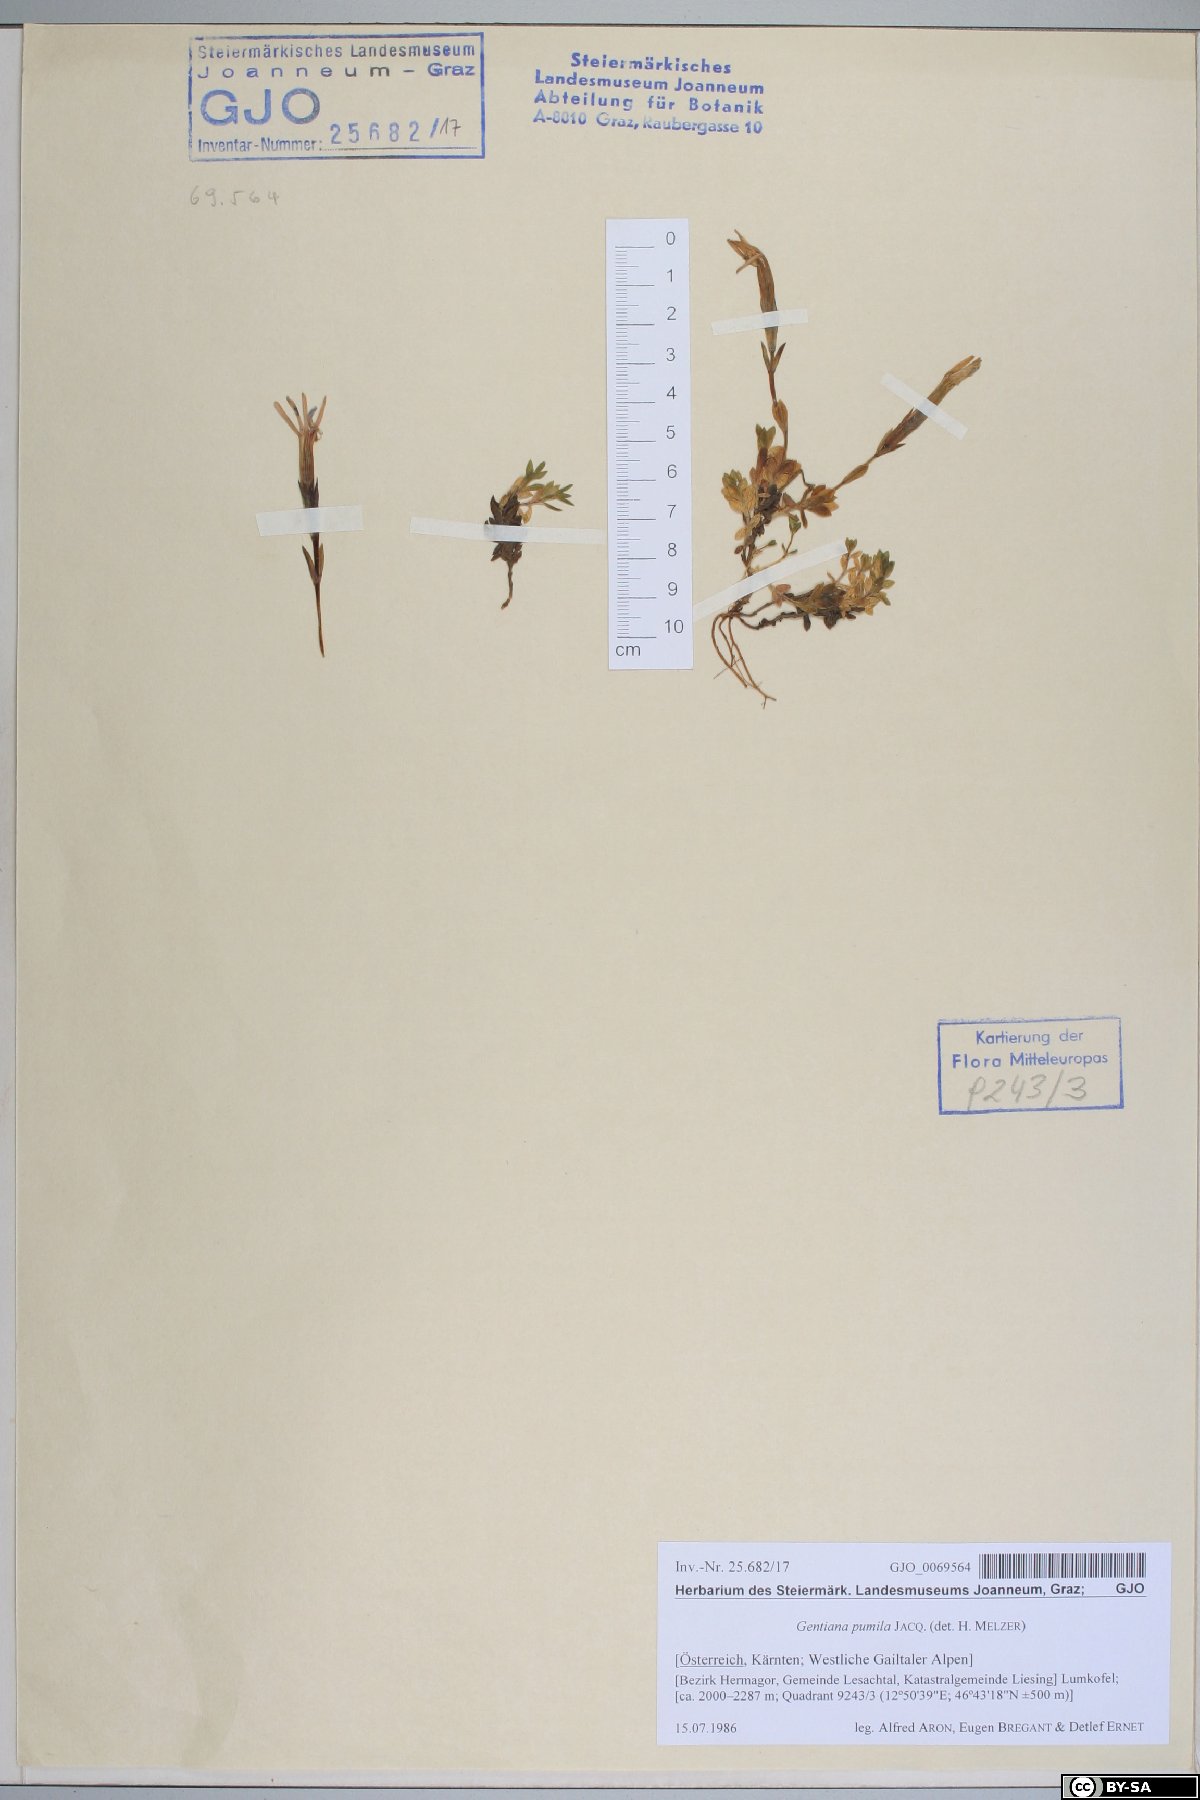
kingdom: Plantae
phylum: Tracheophyta
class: Magnoliopsida
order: Gentianales
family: Gentianaceae
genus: Gentiana
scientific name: Gentiana pumila
